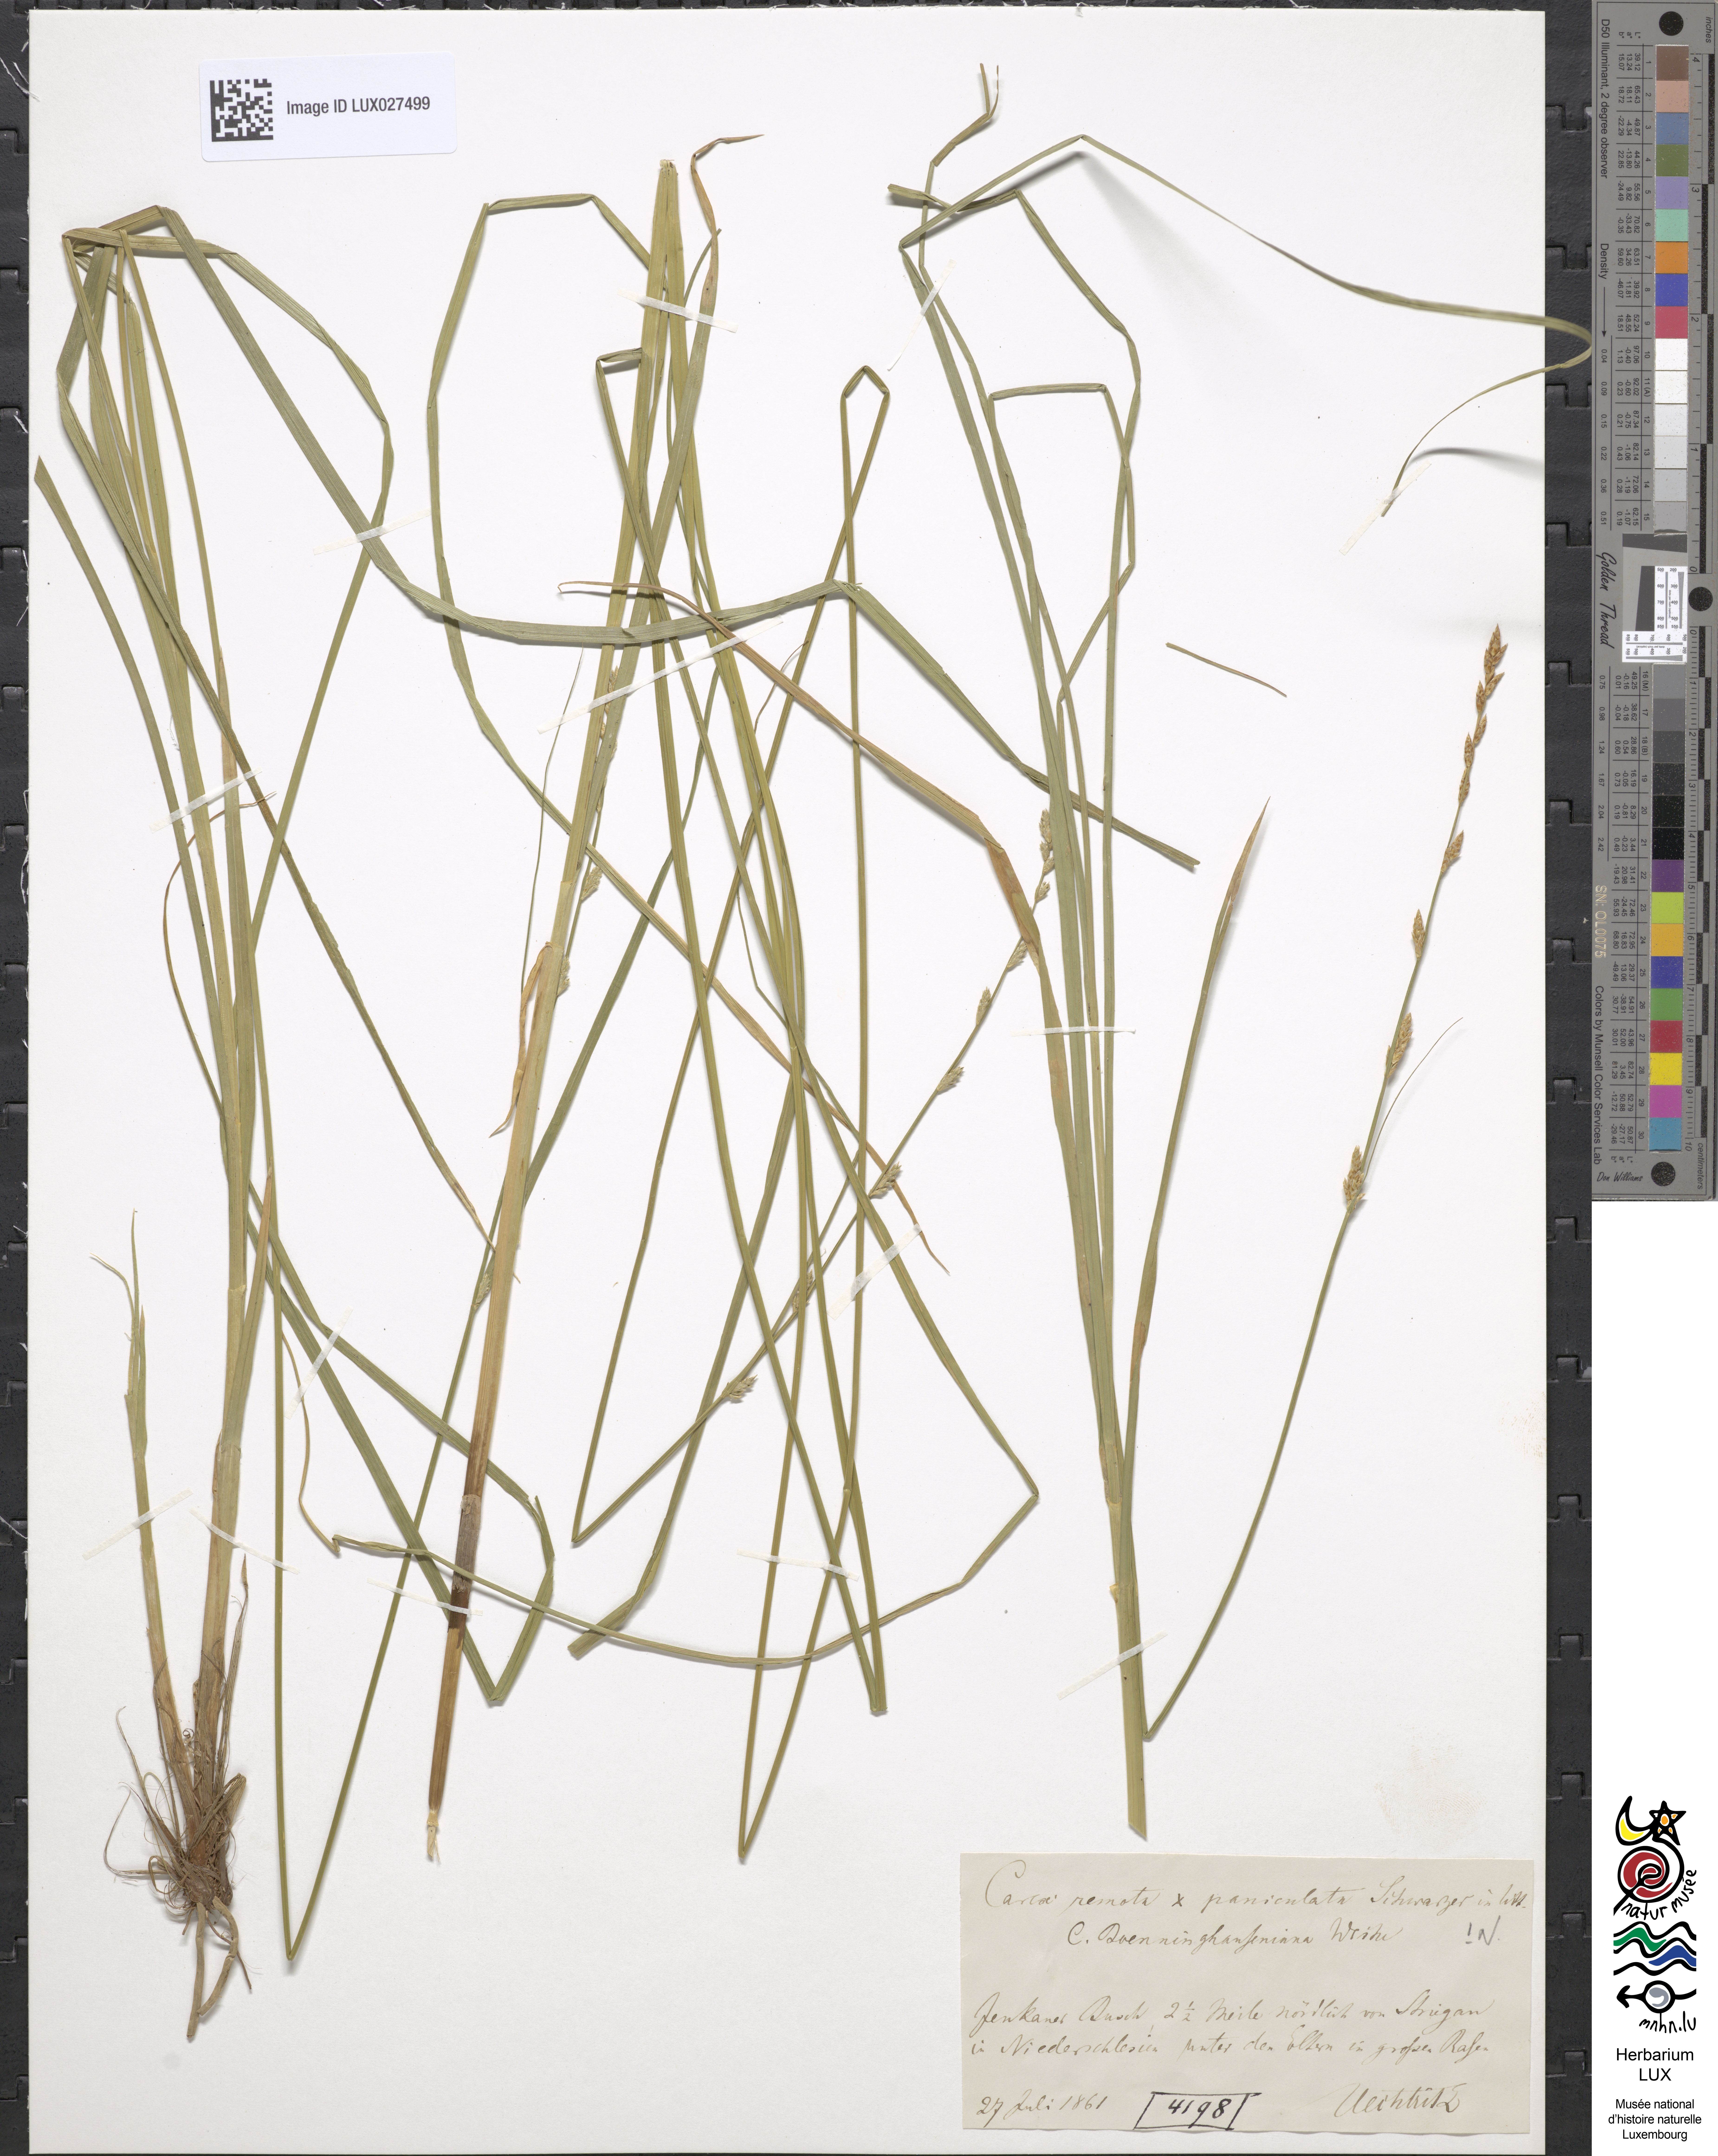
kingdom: Plantae
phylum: Tracheophyta
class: Liliopsida
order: Poales
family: Cyperaceae
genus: Carex
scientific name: Carex boenninghausiana
